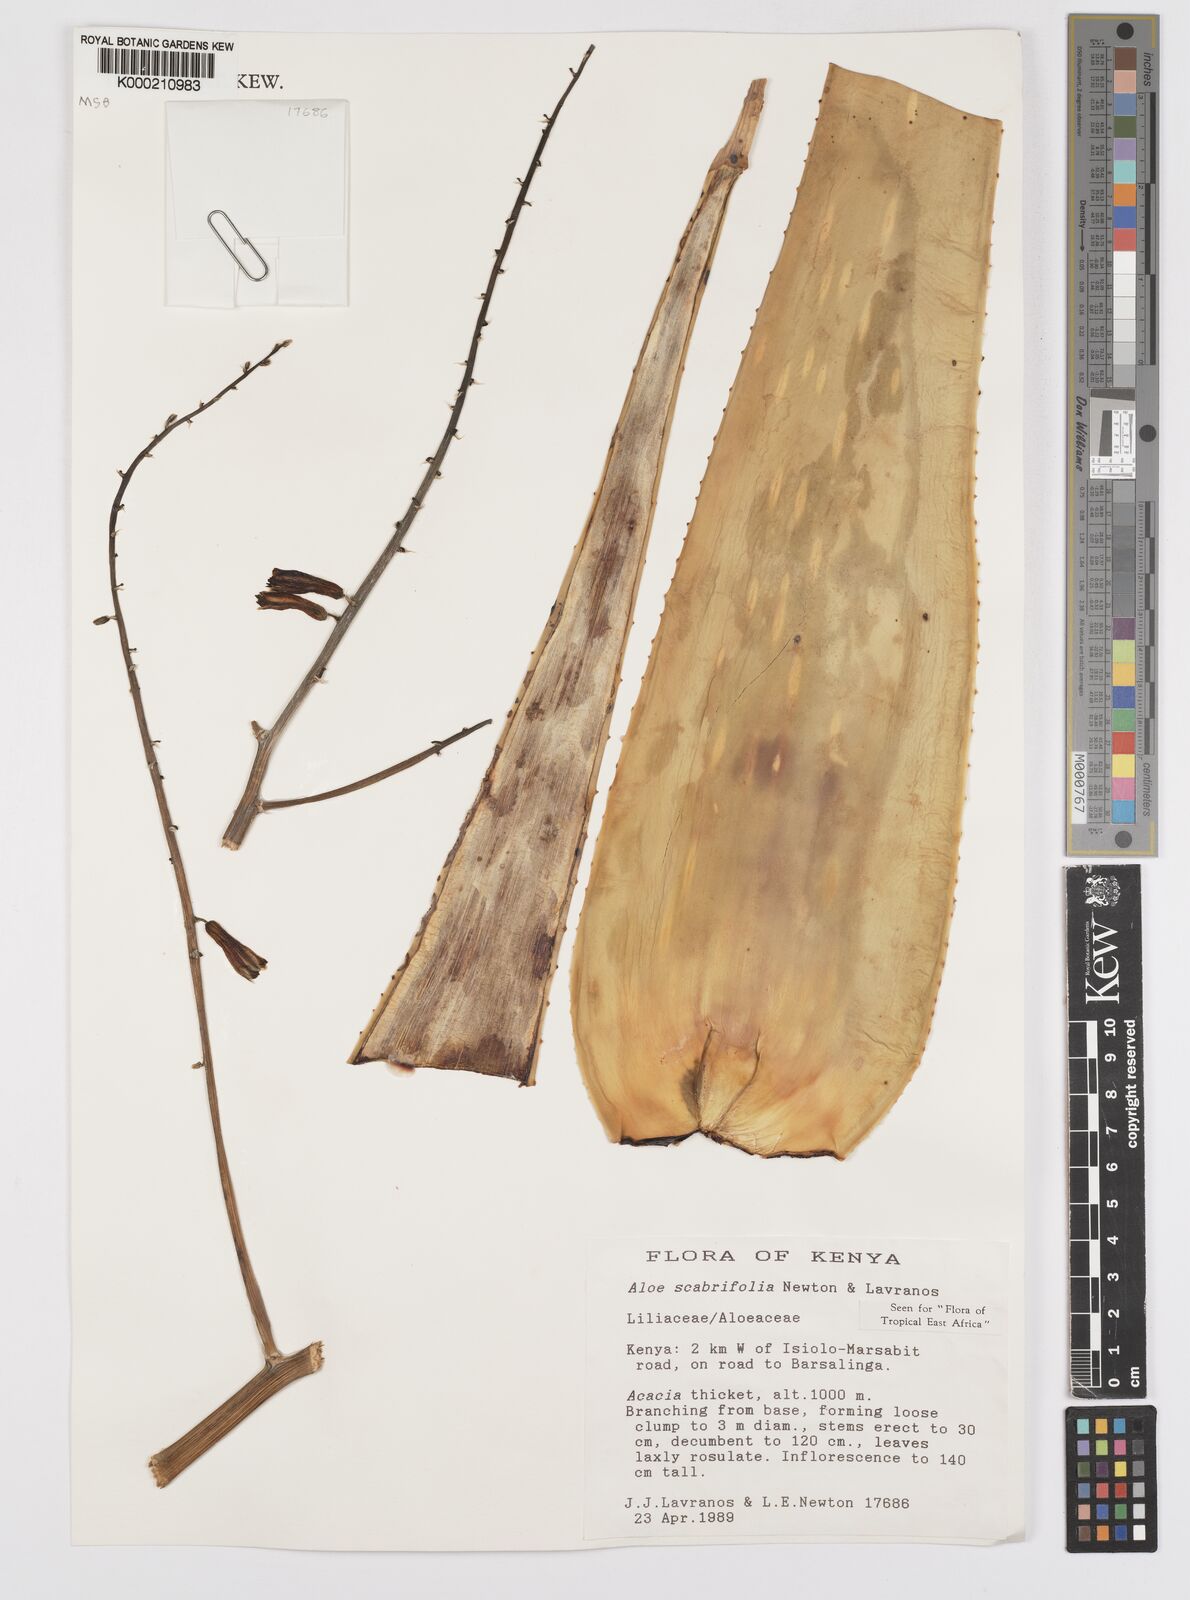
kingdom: Plantae
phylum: Tracheophyta
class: Liliopsida
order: Asparagales
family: Asphodelaceae
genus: Aloe
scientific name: Aloe scabrifolia
